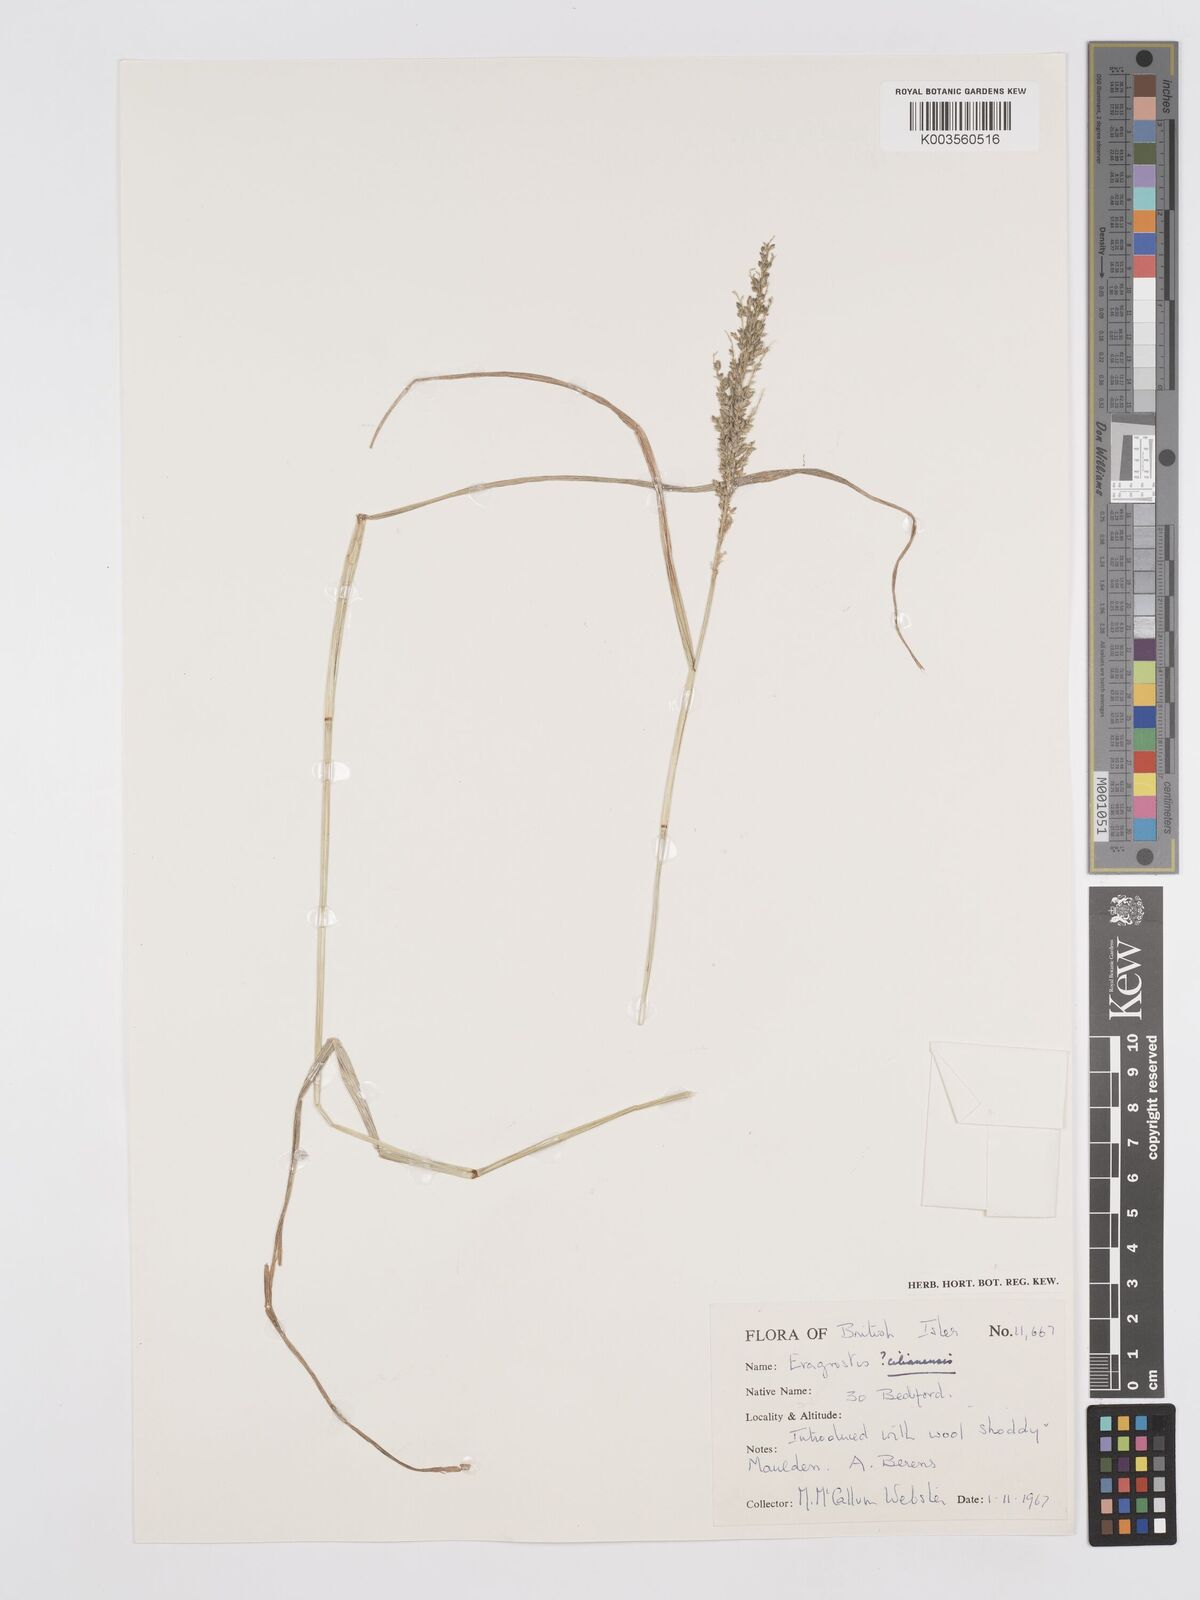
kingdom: Plantae
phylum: Tracheophyta
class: Liliopsida
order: Poales
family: Poaceae
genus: Eragrostis
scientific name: Eragrostis cilianensis
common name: Stinkgrass
